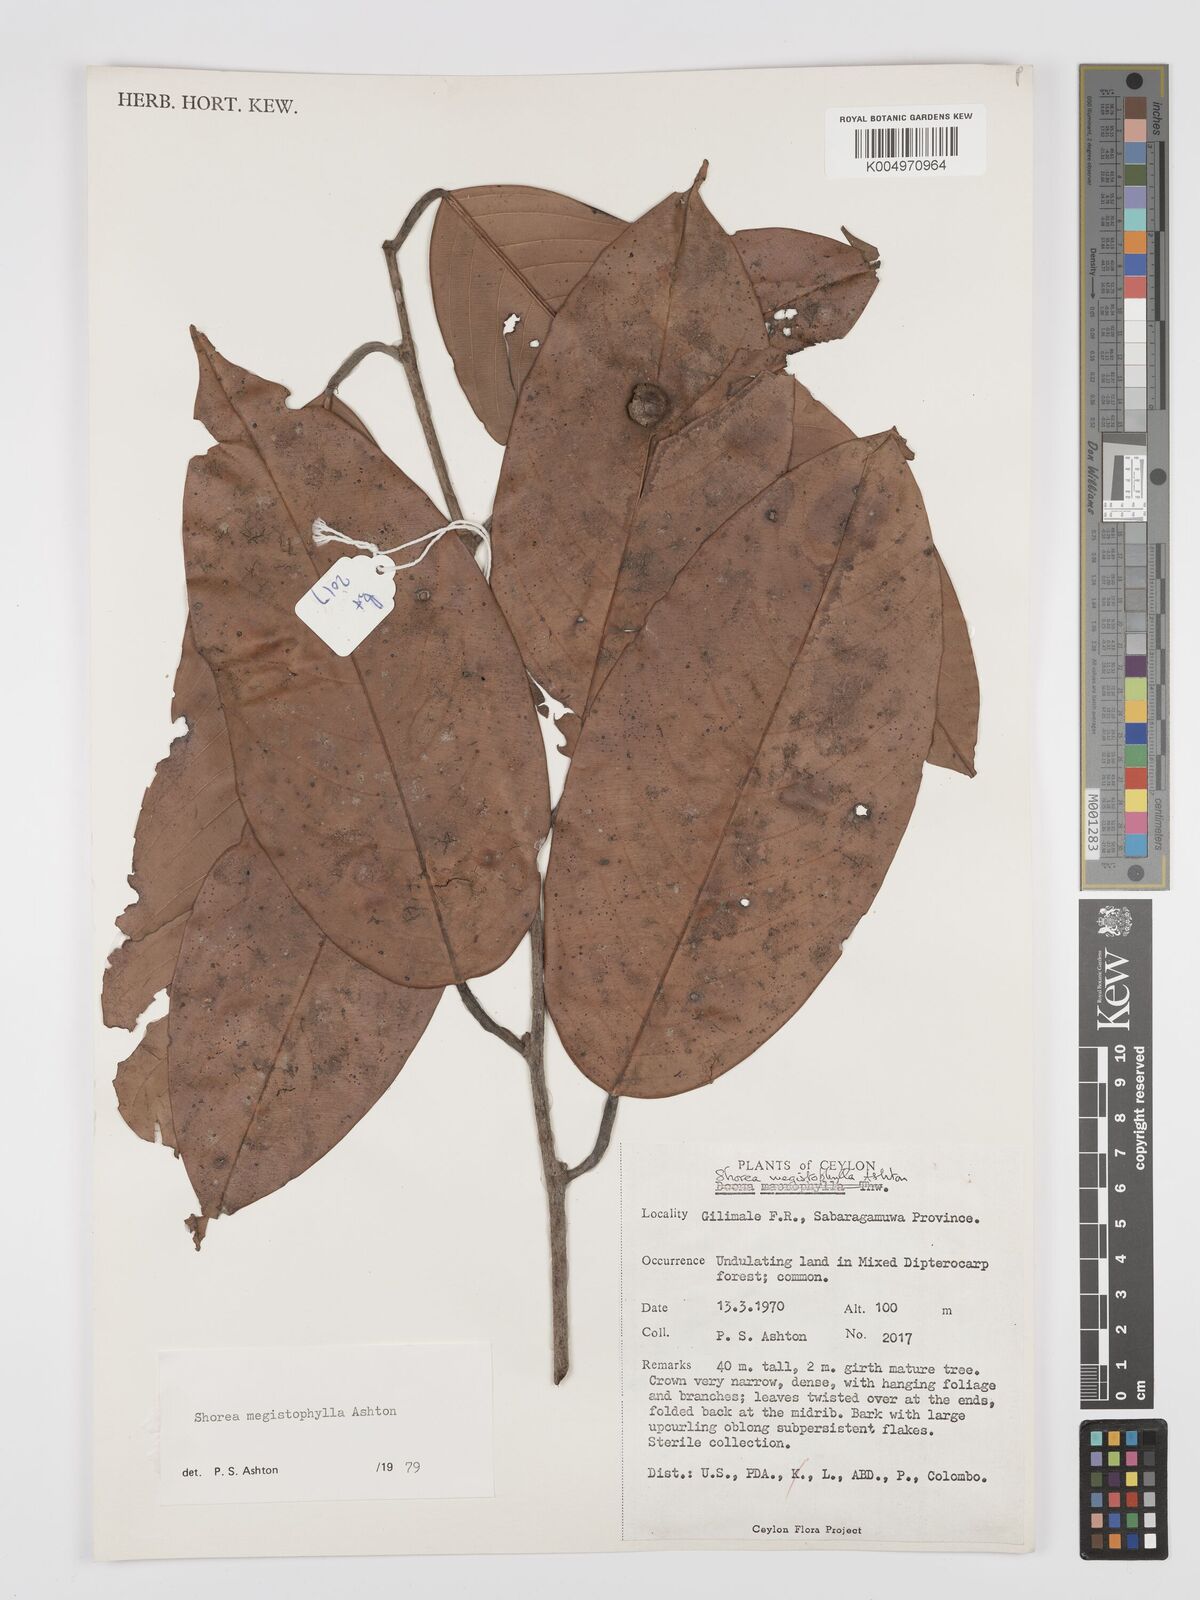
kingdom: Plantae
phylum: Tracheophyta
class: Magnoliopsida
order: Malvales
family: Dipterocarpaceae
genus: Doona
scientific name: Doona macrophylla
